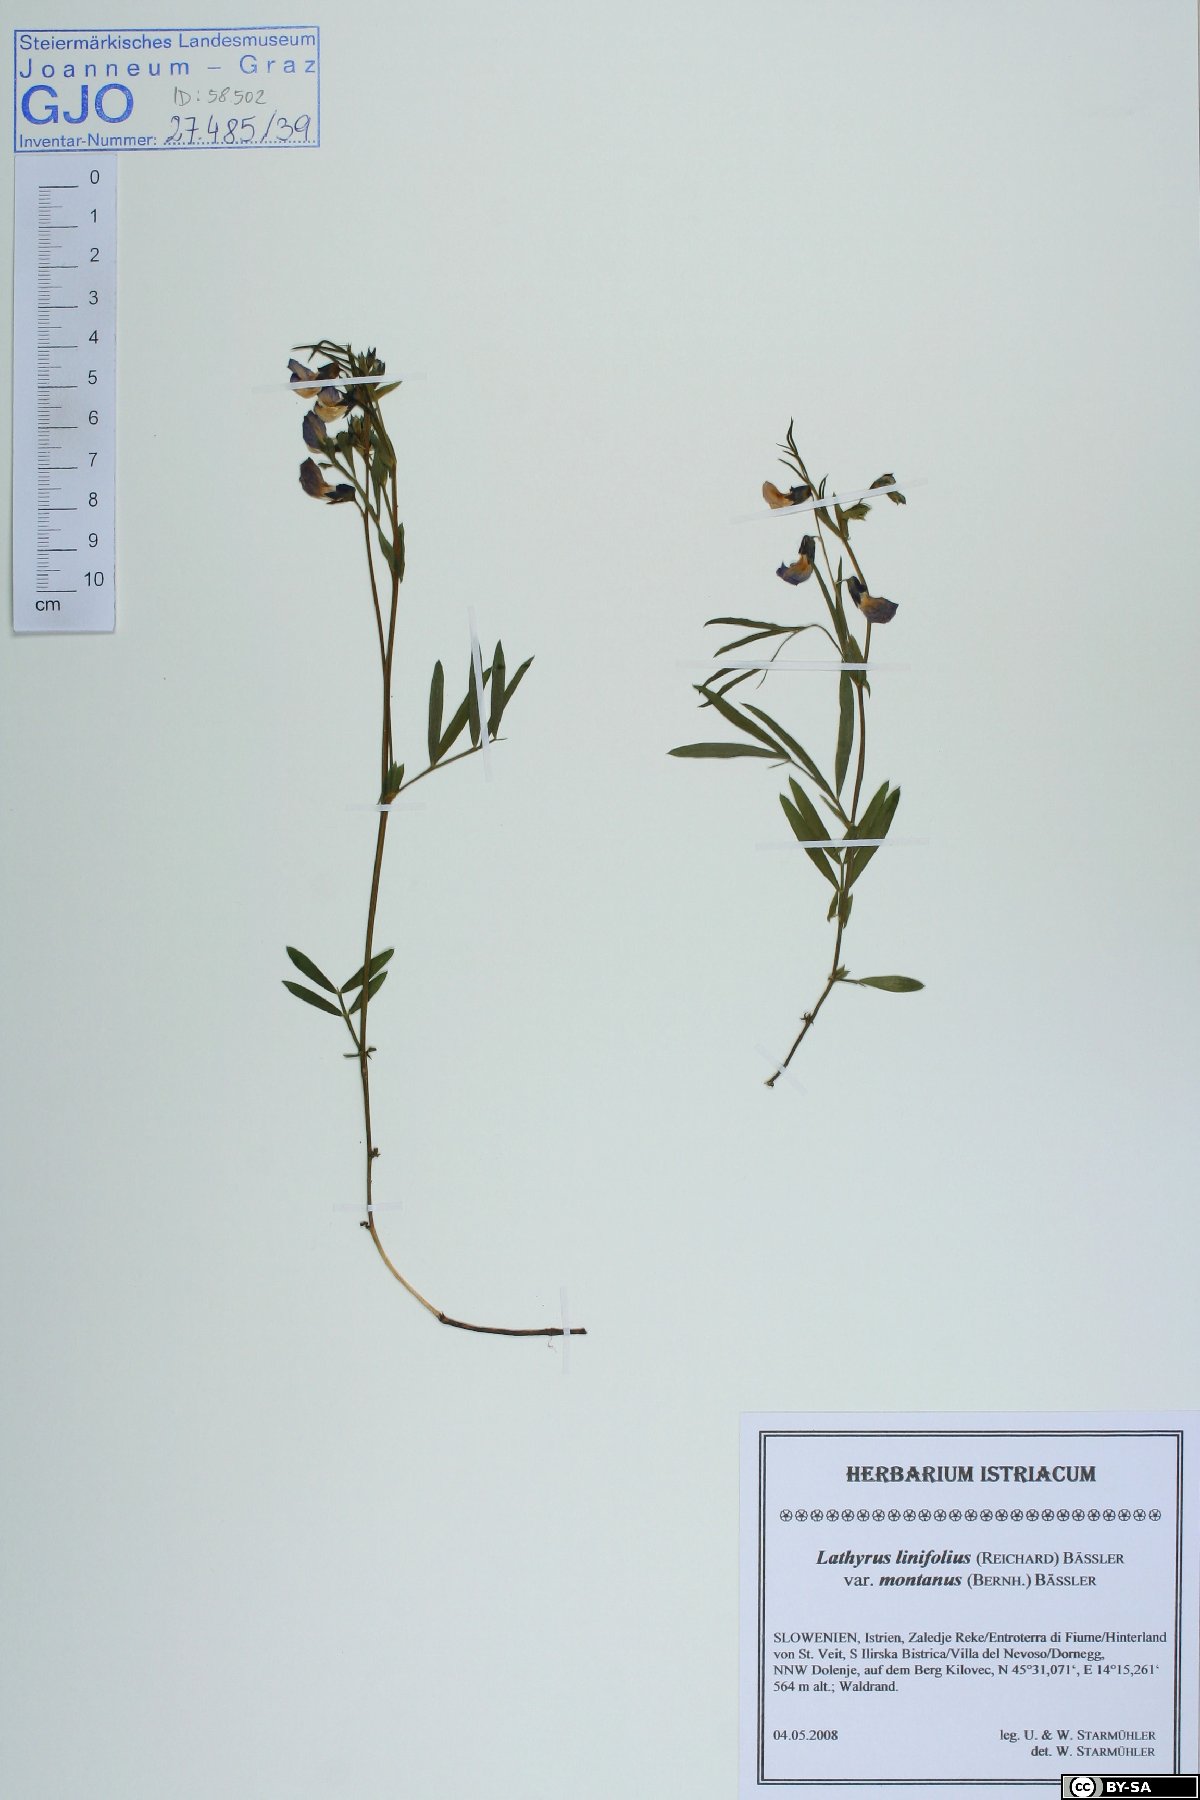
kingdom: Plantae
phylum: Tracheophyta
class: Magnoliopsida
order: Fabales
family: Fabaceae
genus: Lathyrus
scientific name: Lathyrus linifolius
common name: Bitter-vetch
